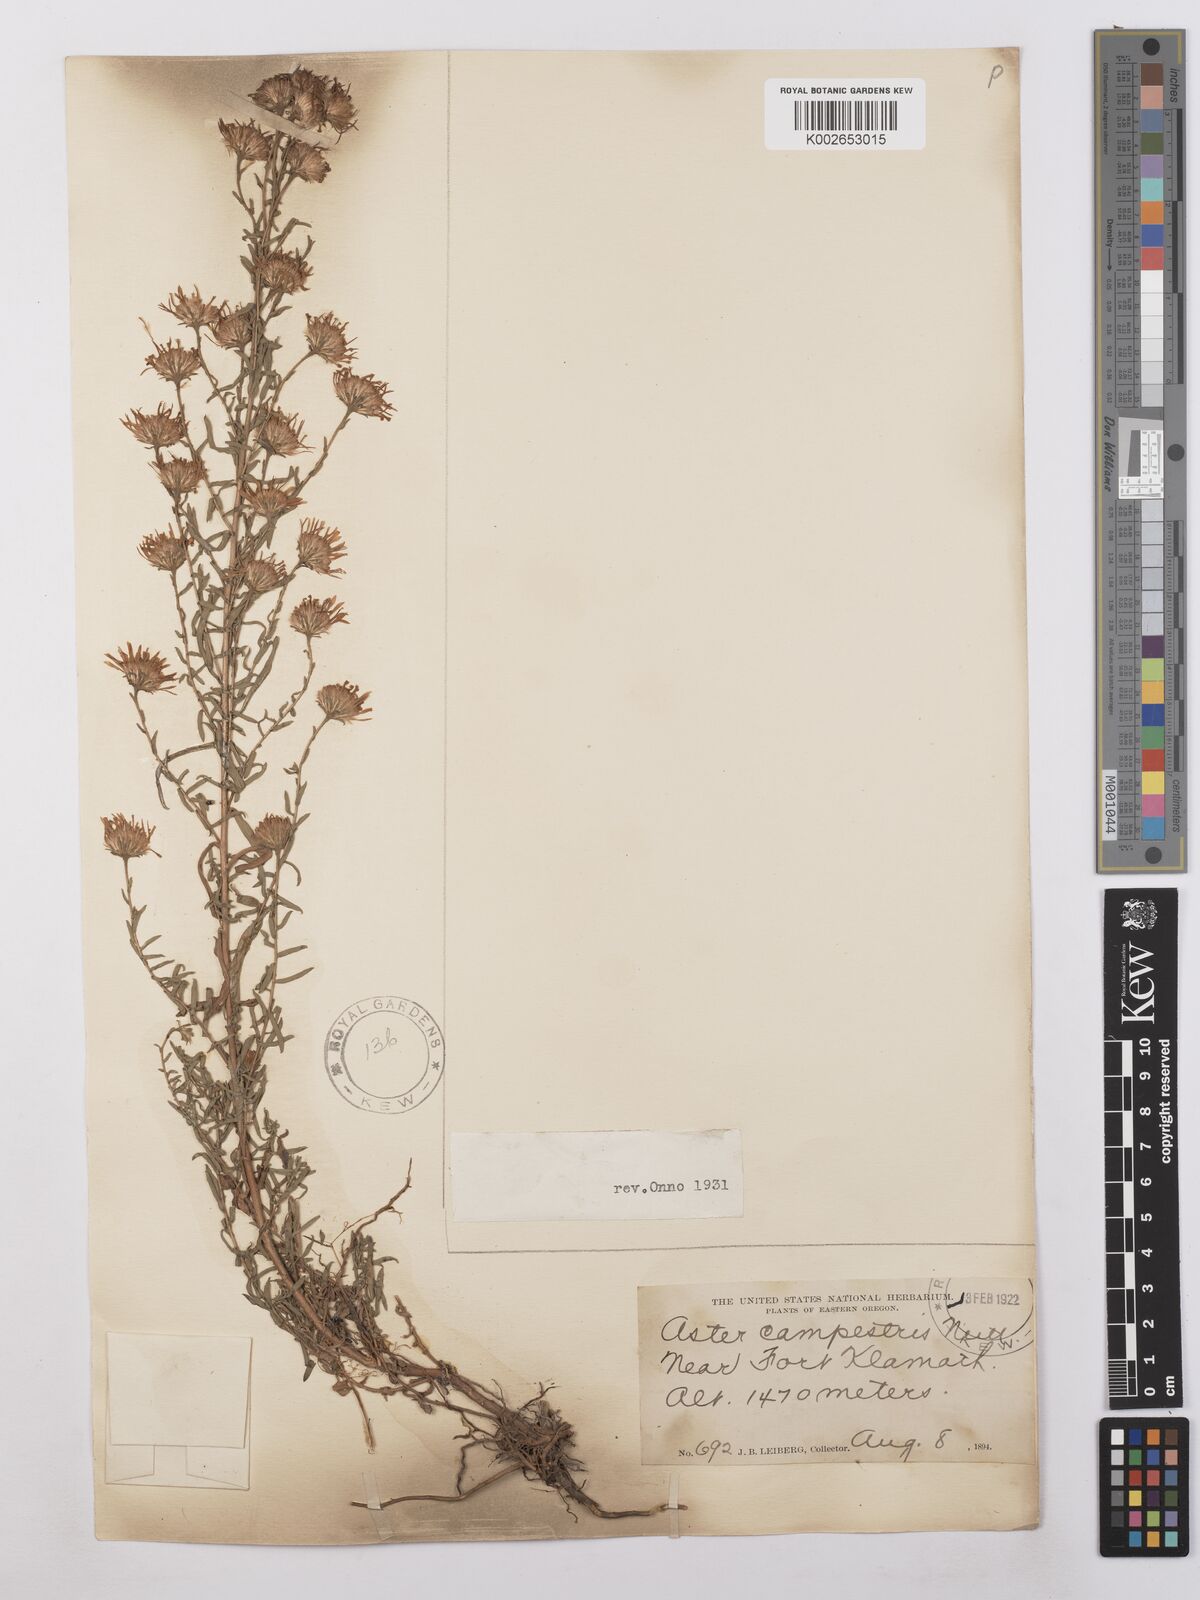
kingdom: Plantae
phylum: Tracheophyta
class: Magnoliopsida
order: Asterales
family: Asteraceae
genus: Symphyotrichum
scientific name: Symphyotrichum campestre
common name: Meadow aster
